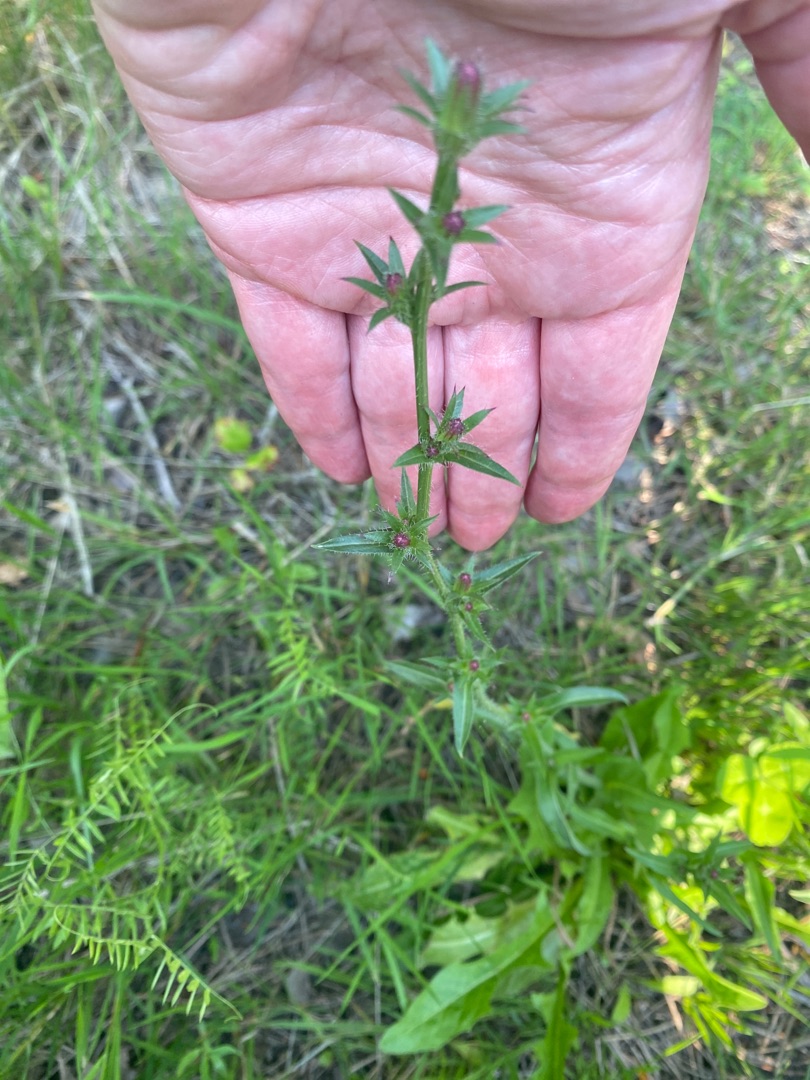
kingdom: Plantae
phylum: Tracheophyta
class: Magnoliopsida
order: Asterales
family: Asteraceae
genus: Cichorium
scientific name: Cichorium intybus
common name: Cikorie
